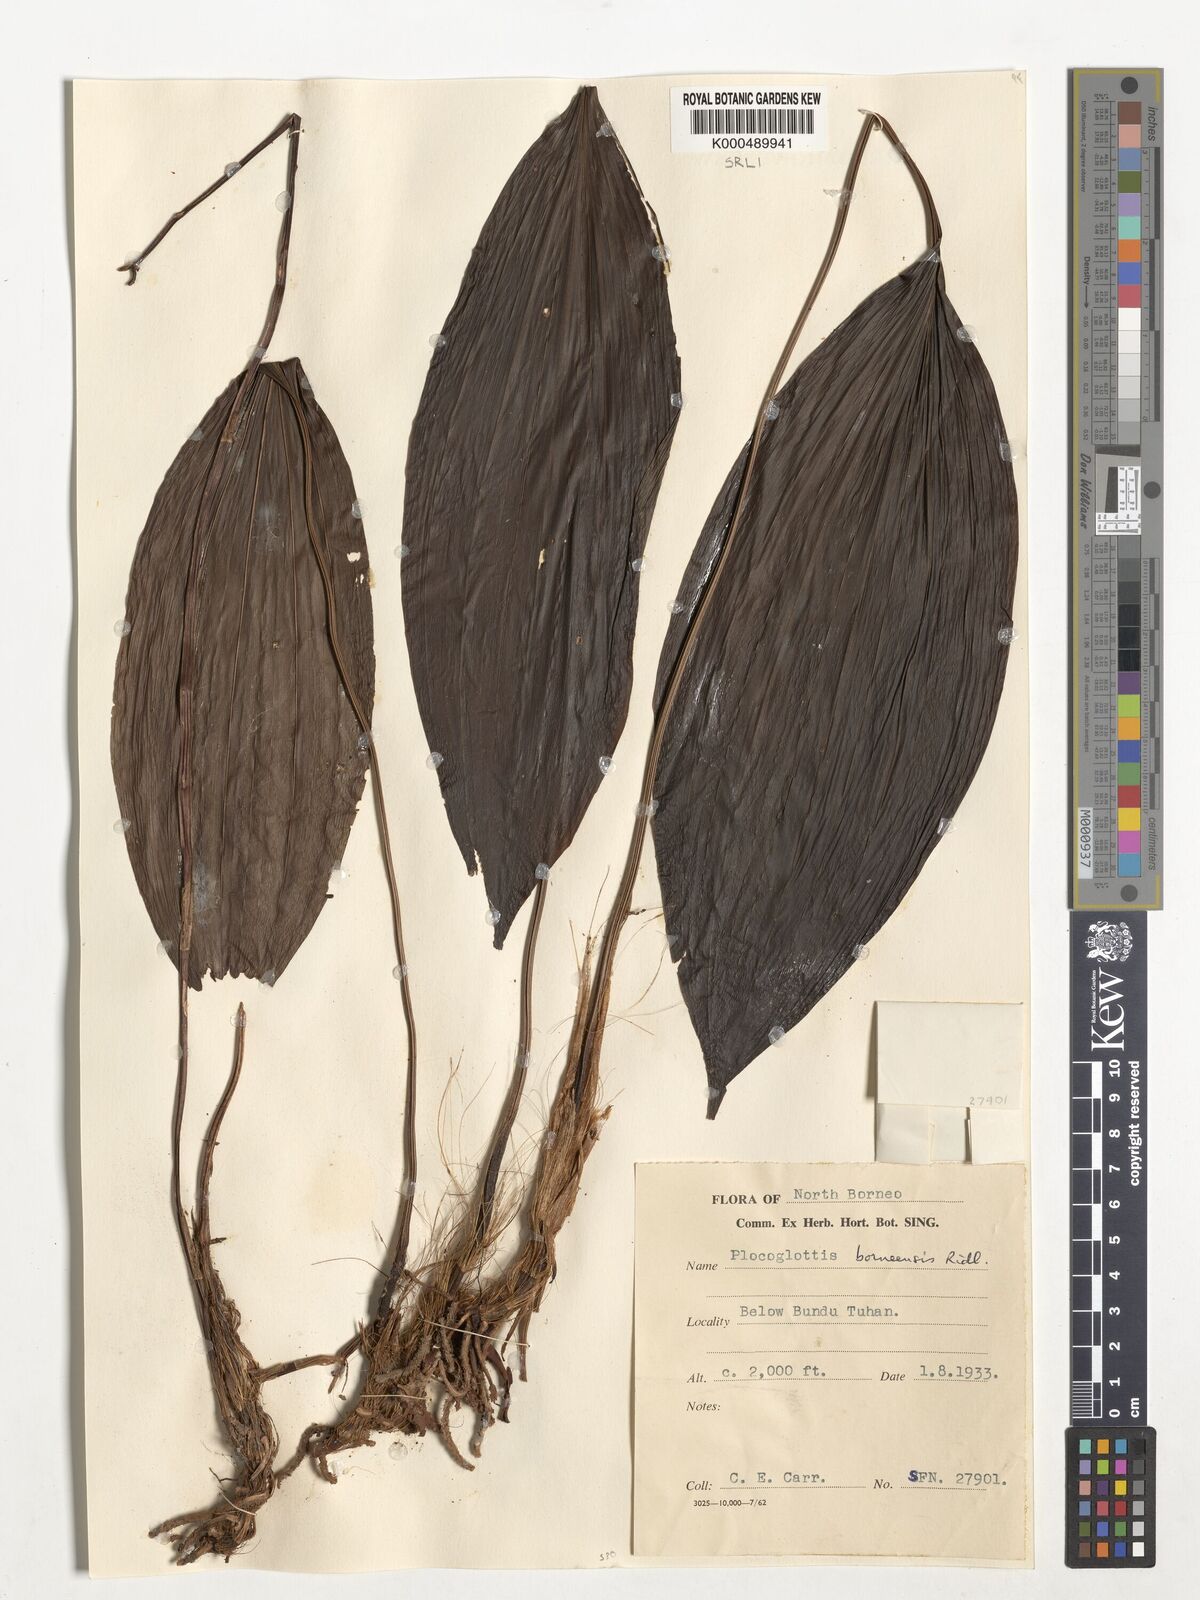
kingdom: Plantae
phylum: Tracheophyta
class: Liliopsida
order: Asparagales
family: Orchidaceae
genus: Plocoglottis
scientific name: Plocoglottis borneensis
